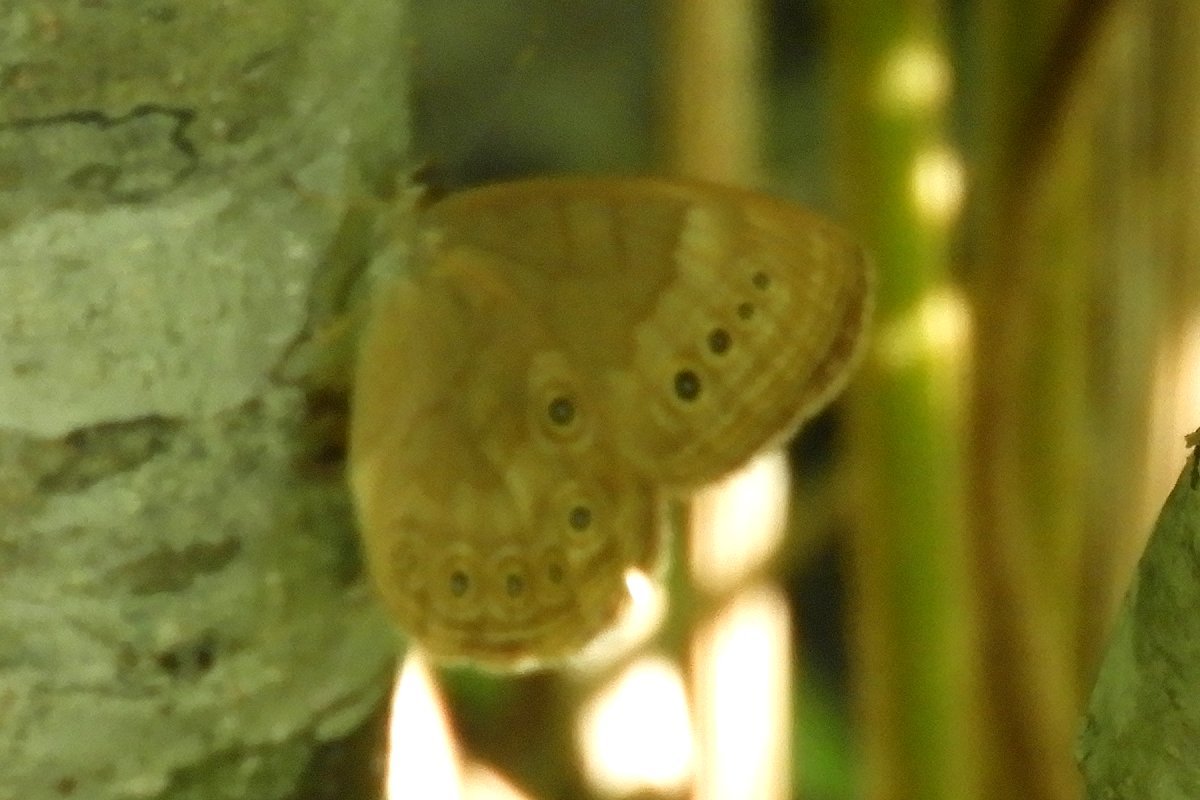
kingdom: Animalia
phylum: Arthropoda
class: Insecta
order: Lepidoptera
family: Nymphalidae
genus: Lethe
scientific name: Lethe eurydice
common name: Eyed Brown
